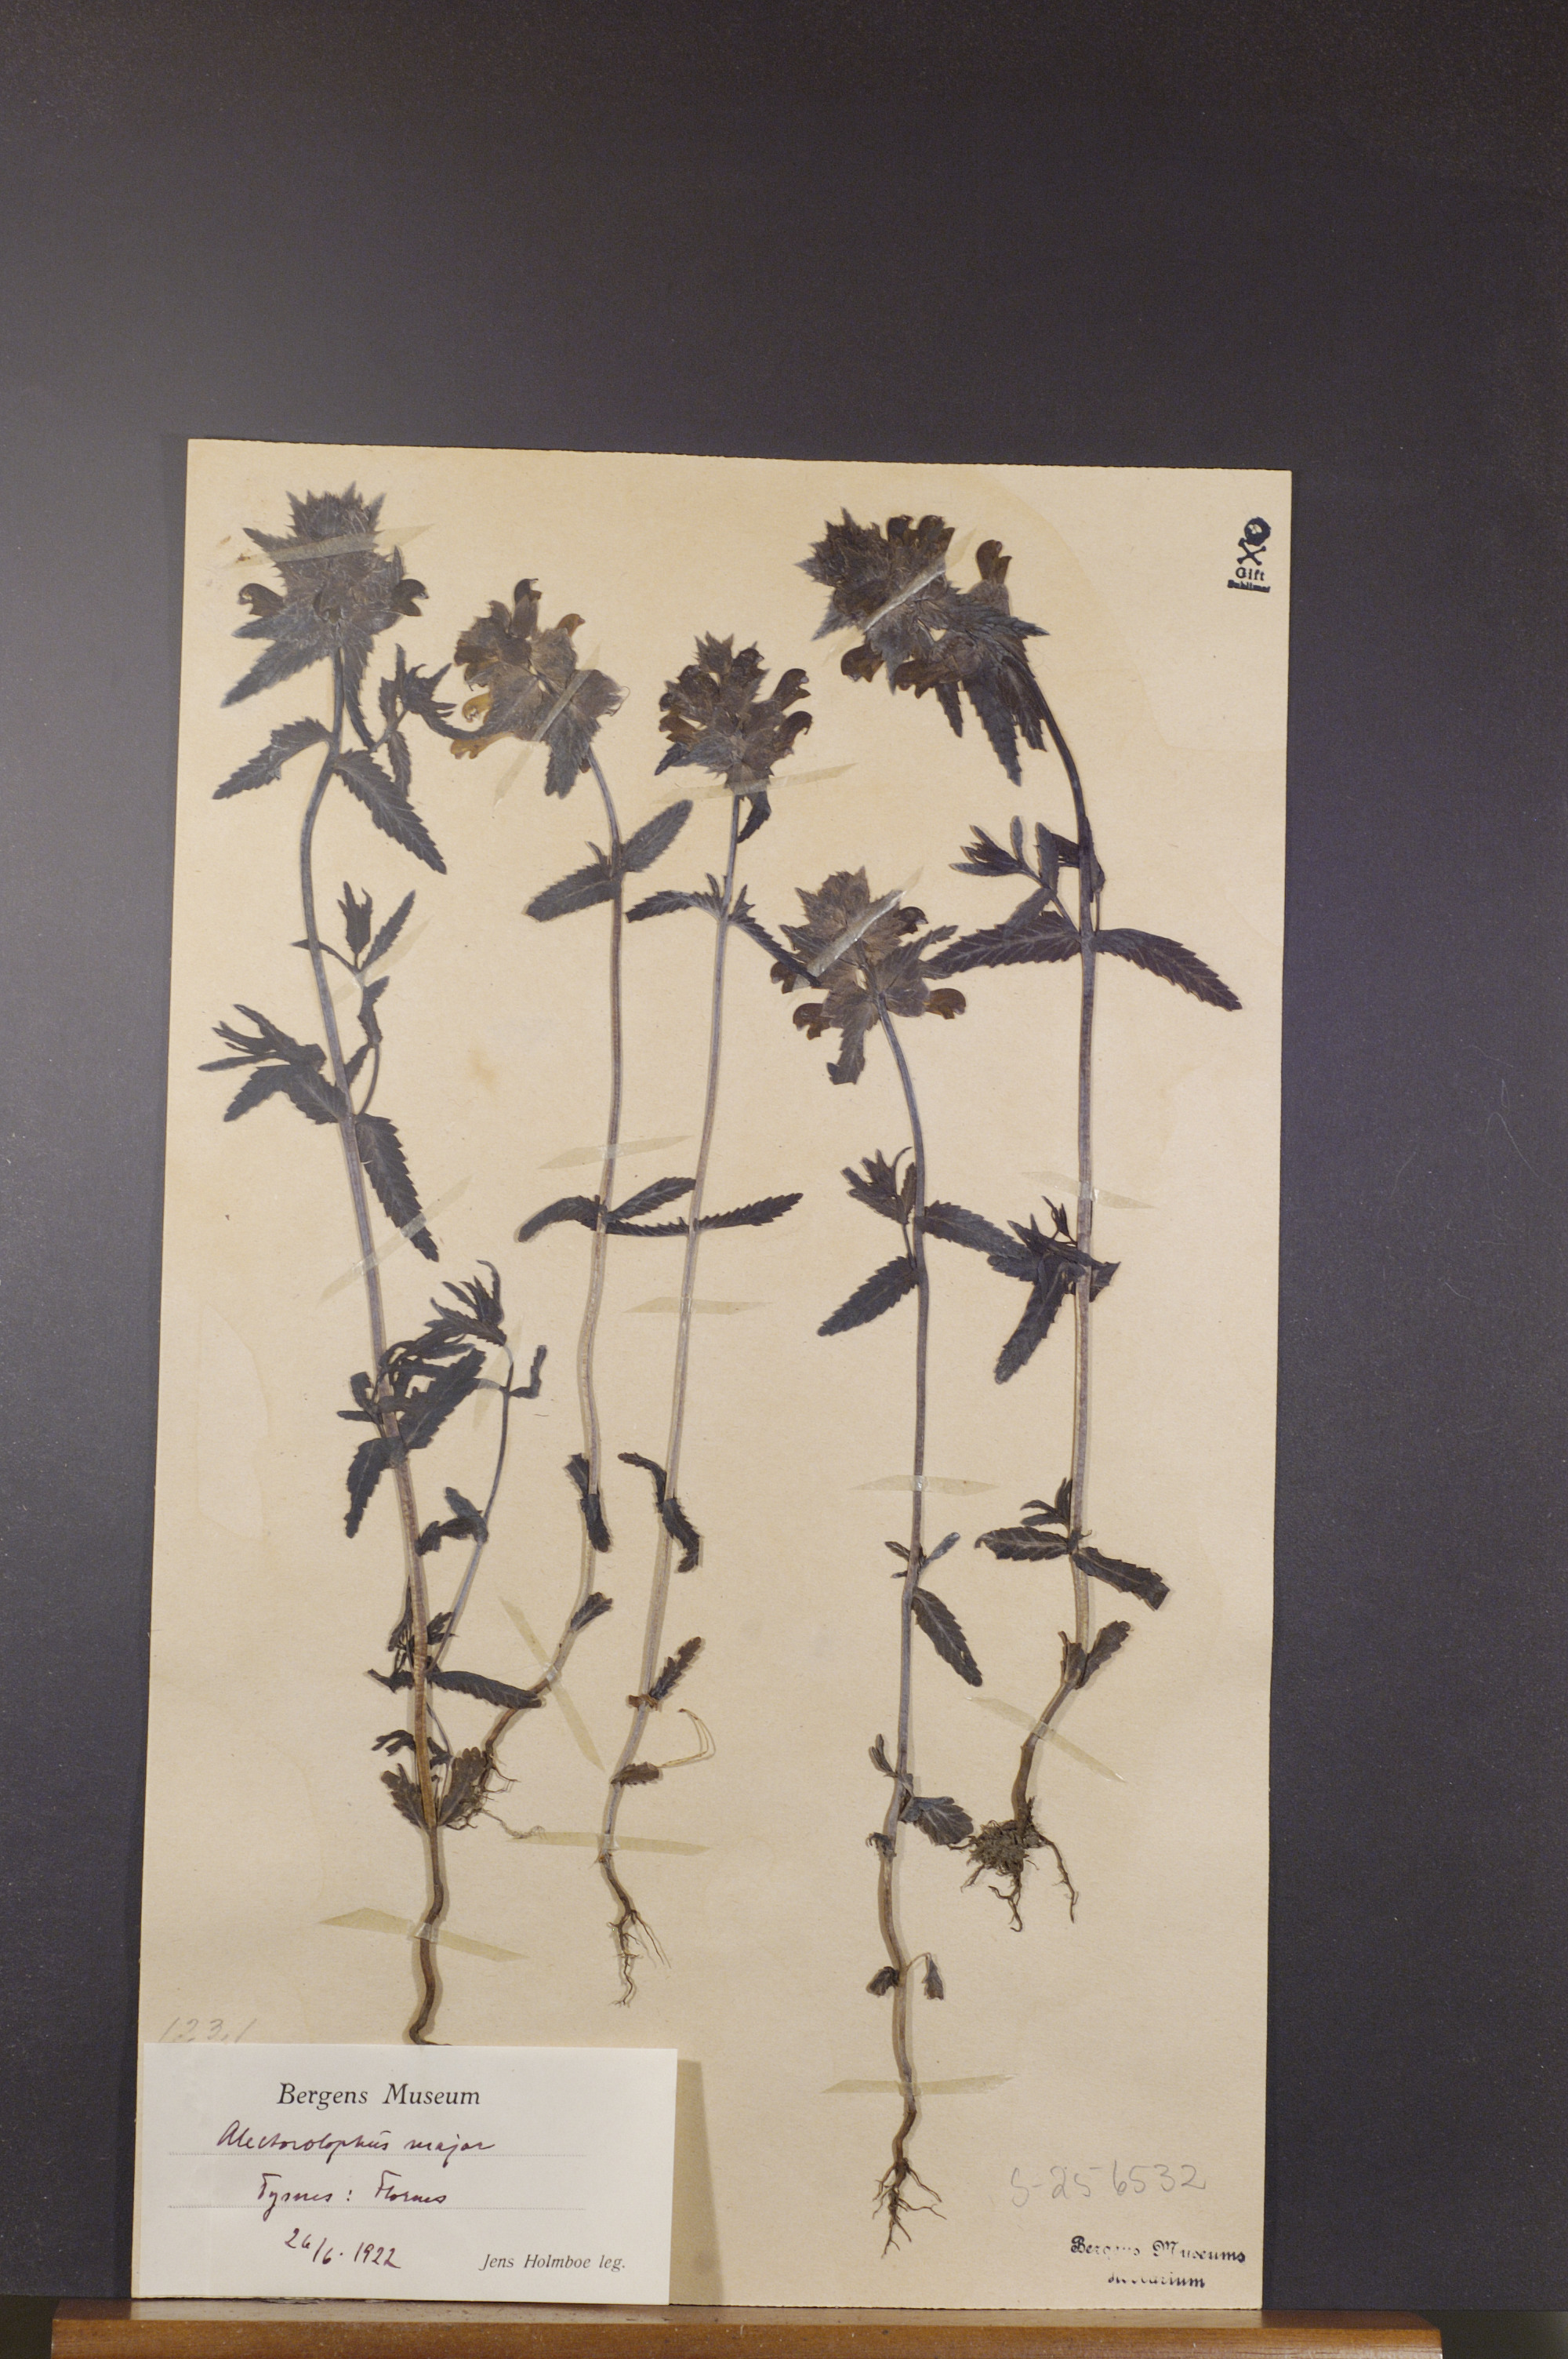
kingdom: Plantae
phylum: Tracheophyta
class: Magnoliopsida
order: Lamiales
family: Orobanchaceae
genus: Rhinanthus
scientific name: Rhinanthus serotinus
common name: Late-flowering yellow rattle
